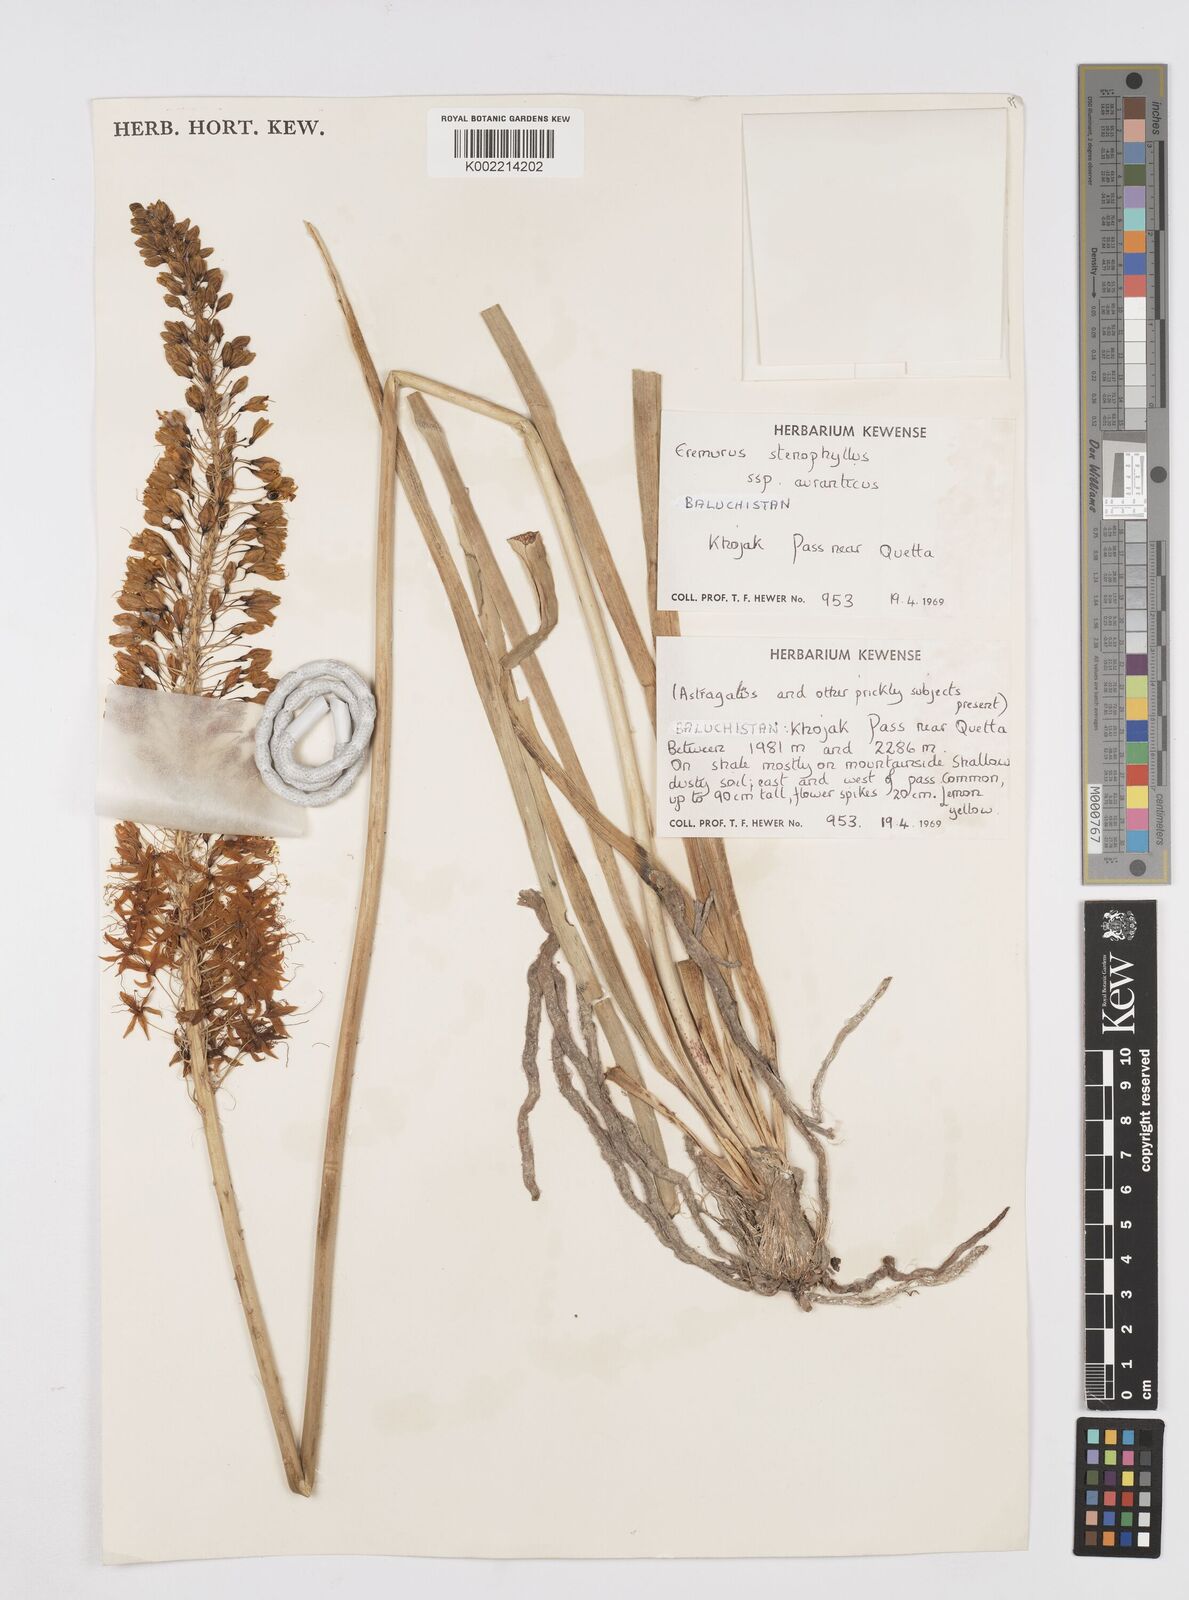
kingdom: Plantae
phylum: Tracheophyta
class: Liliopsida
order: Asparagales
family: Asphodelaceae
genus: Eremurus
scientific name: Eremurus stenophyllus
